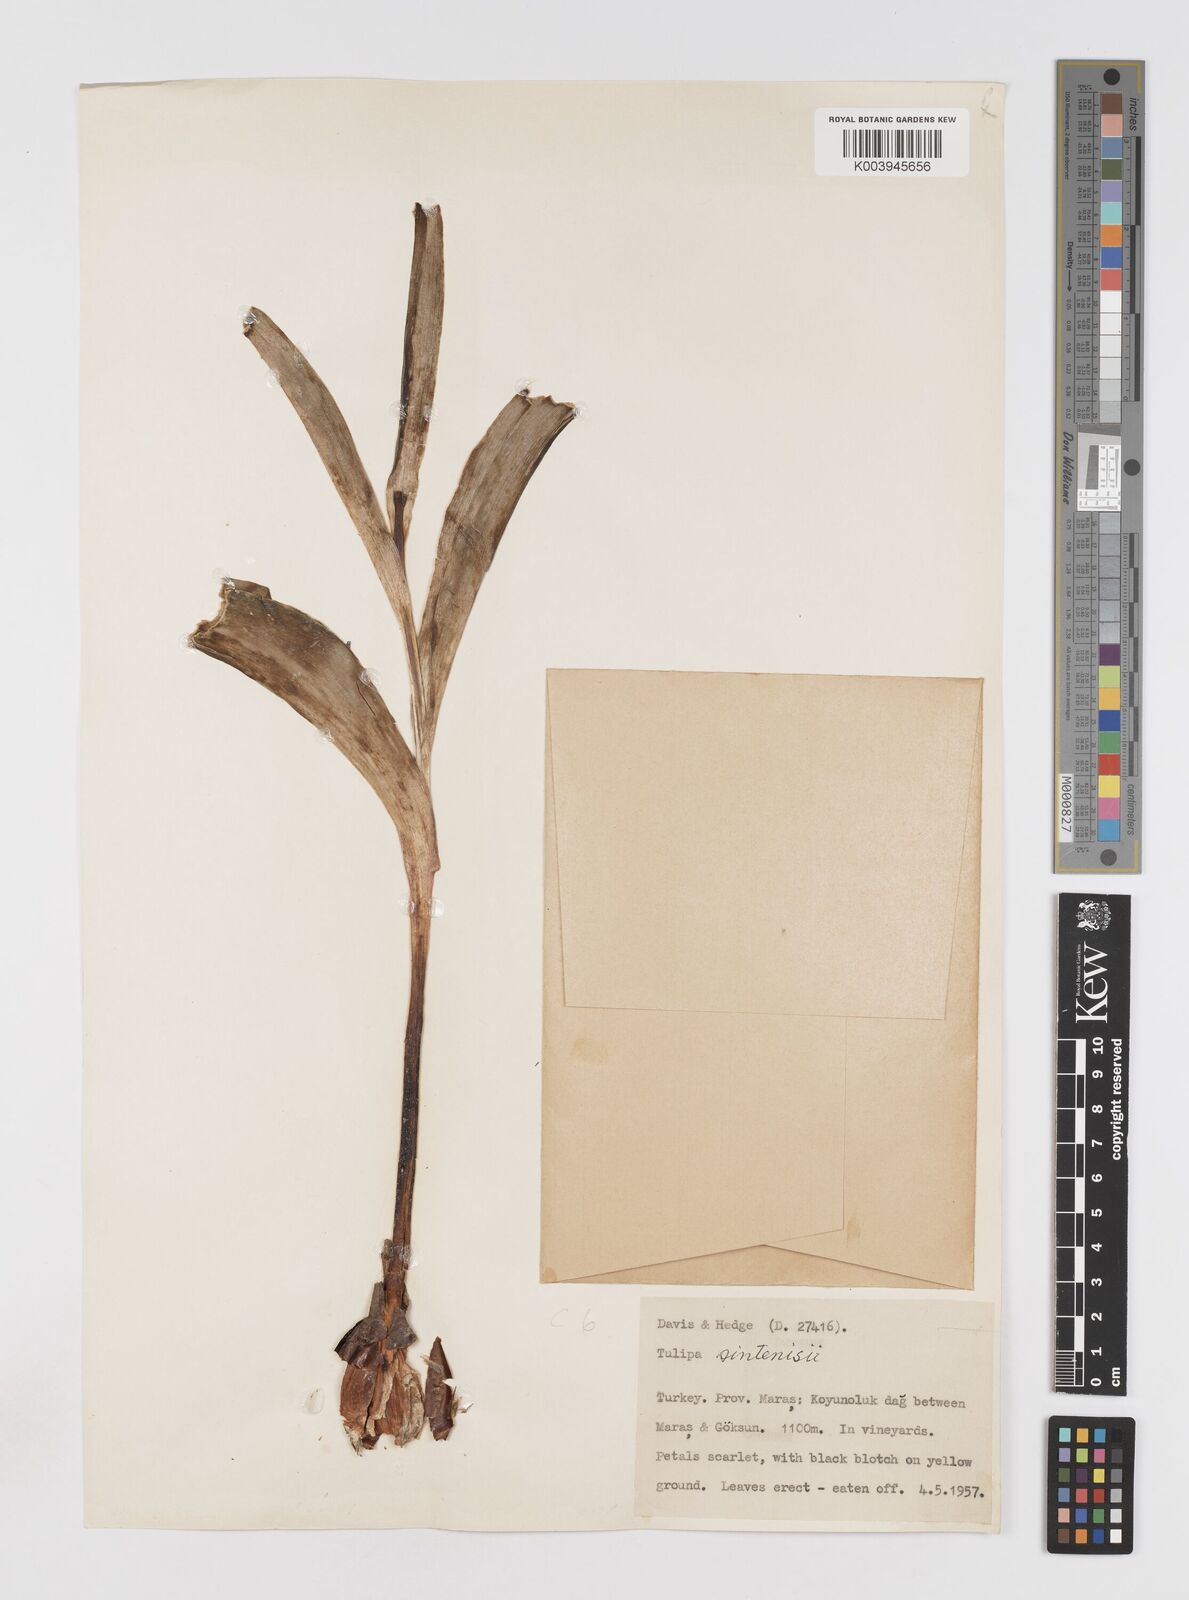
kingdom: Plantae
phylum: Tracheophyta
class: Liliopsida
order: Liliales
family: Liliaceae
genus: Tulipa
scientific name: Tulipa aleppensis
